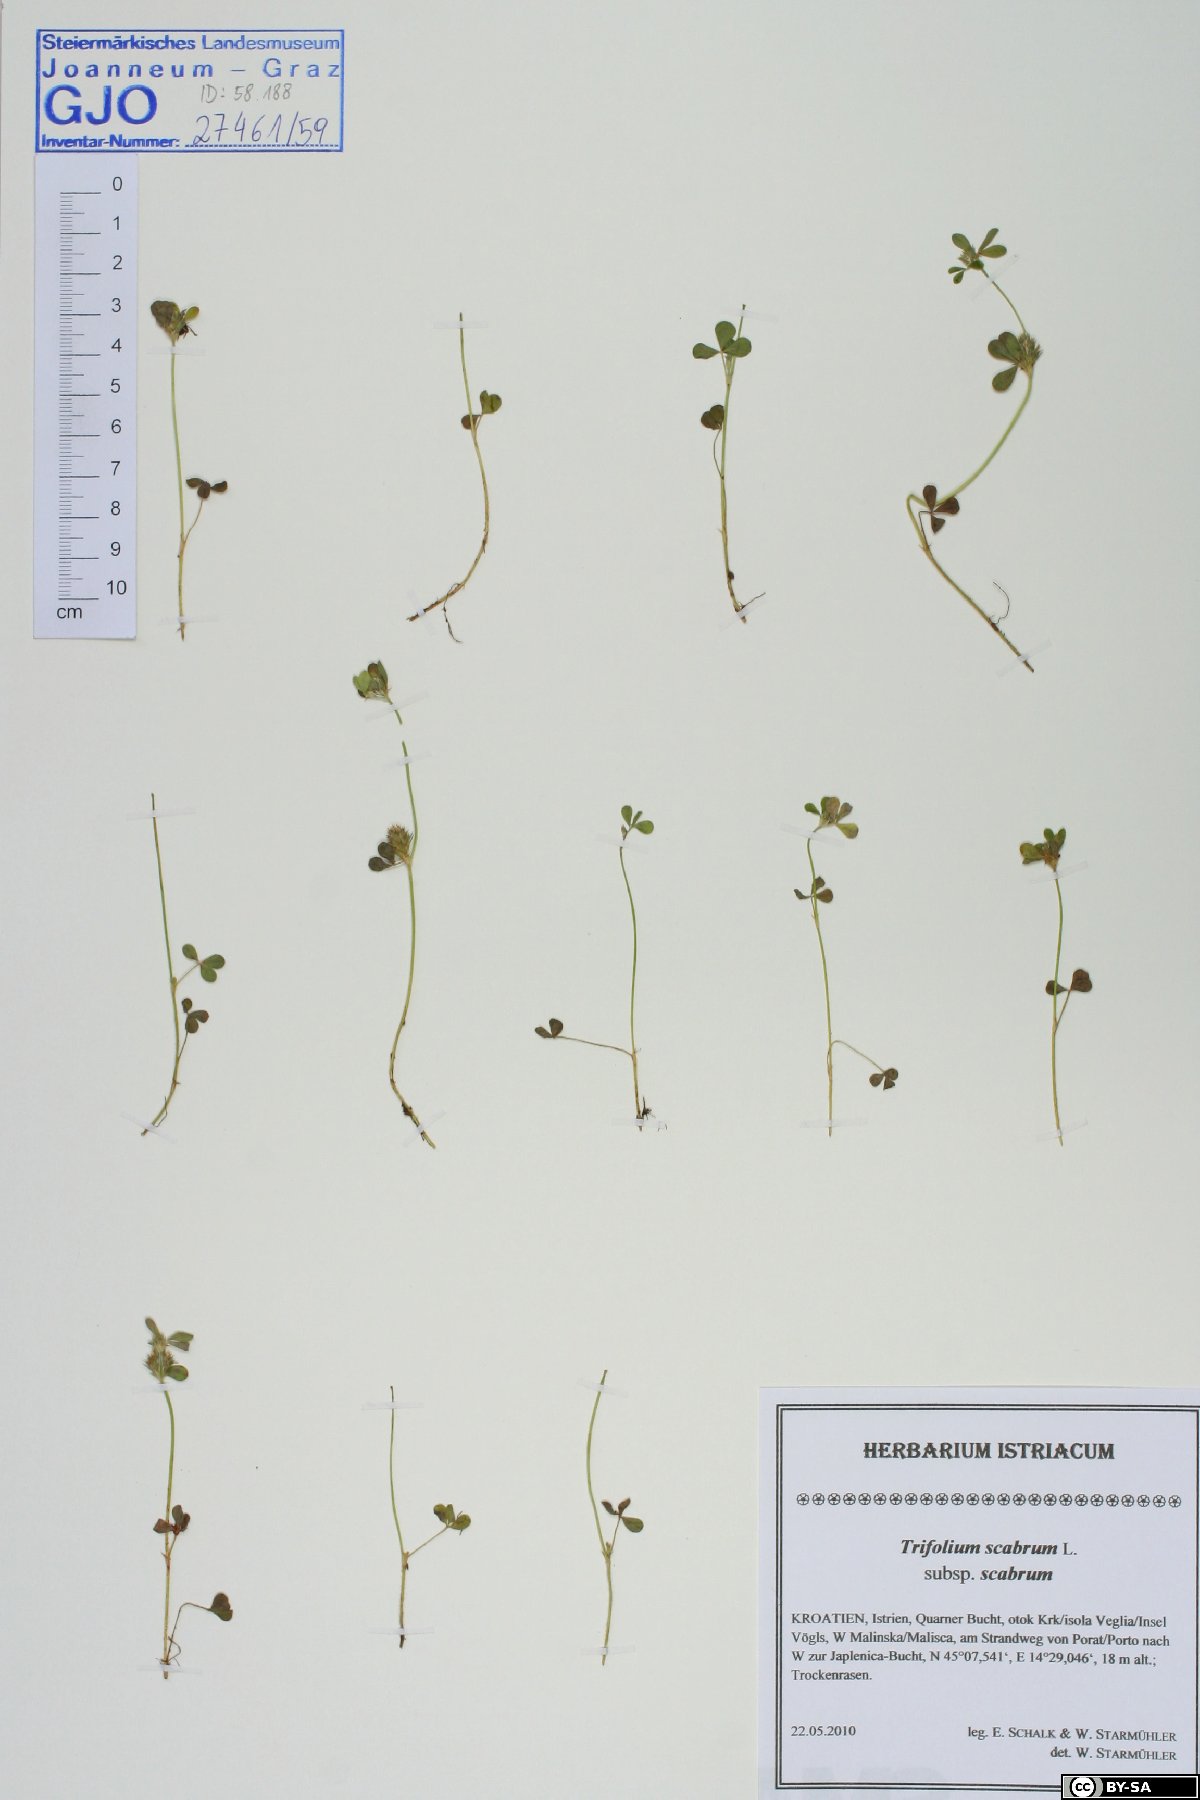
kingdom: Plantae
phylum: Tracheophyta
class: Magnoliopsida
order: Fabales
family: Fabaceae
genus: Trifolium
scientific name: Trifolium scabrum
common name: Rough clover
